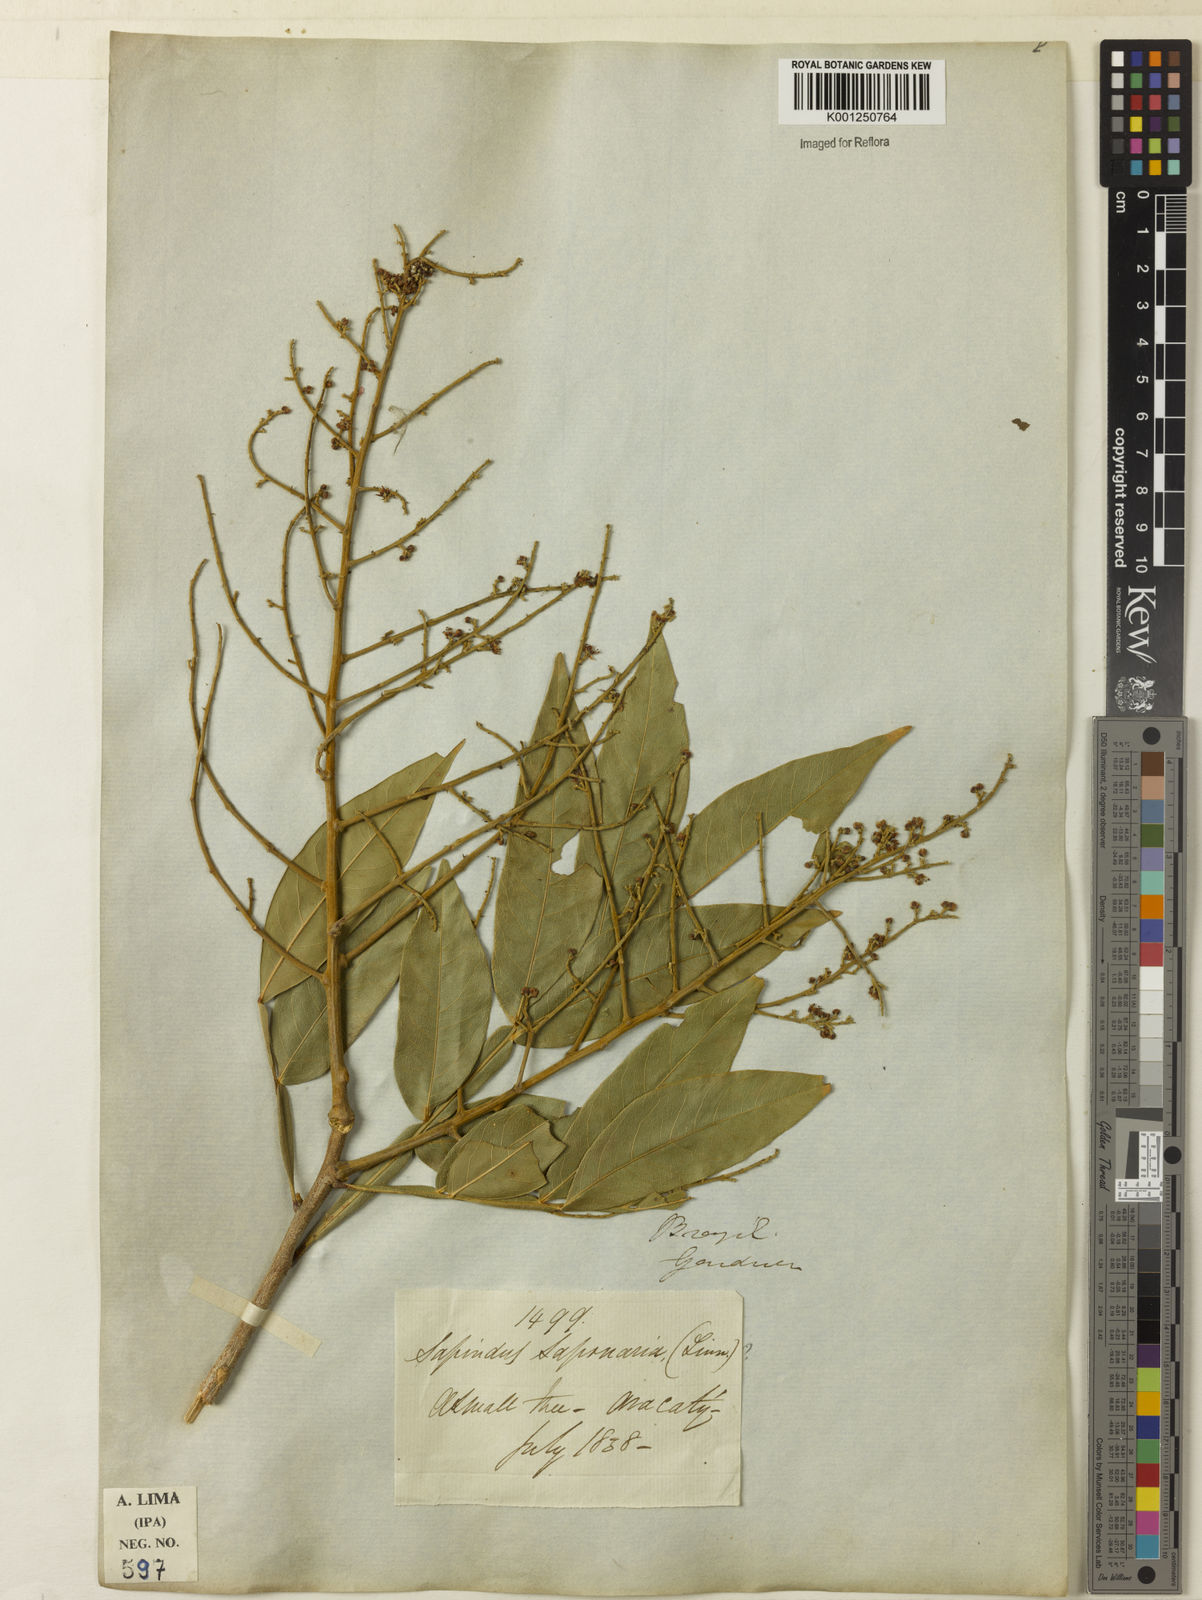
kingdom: Plantae
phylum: Tracheophyta
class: Magnoliopsida
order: Sapindales
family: Sapindaceae
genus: Sapindus
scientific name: Sapindus
